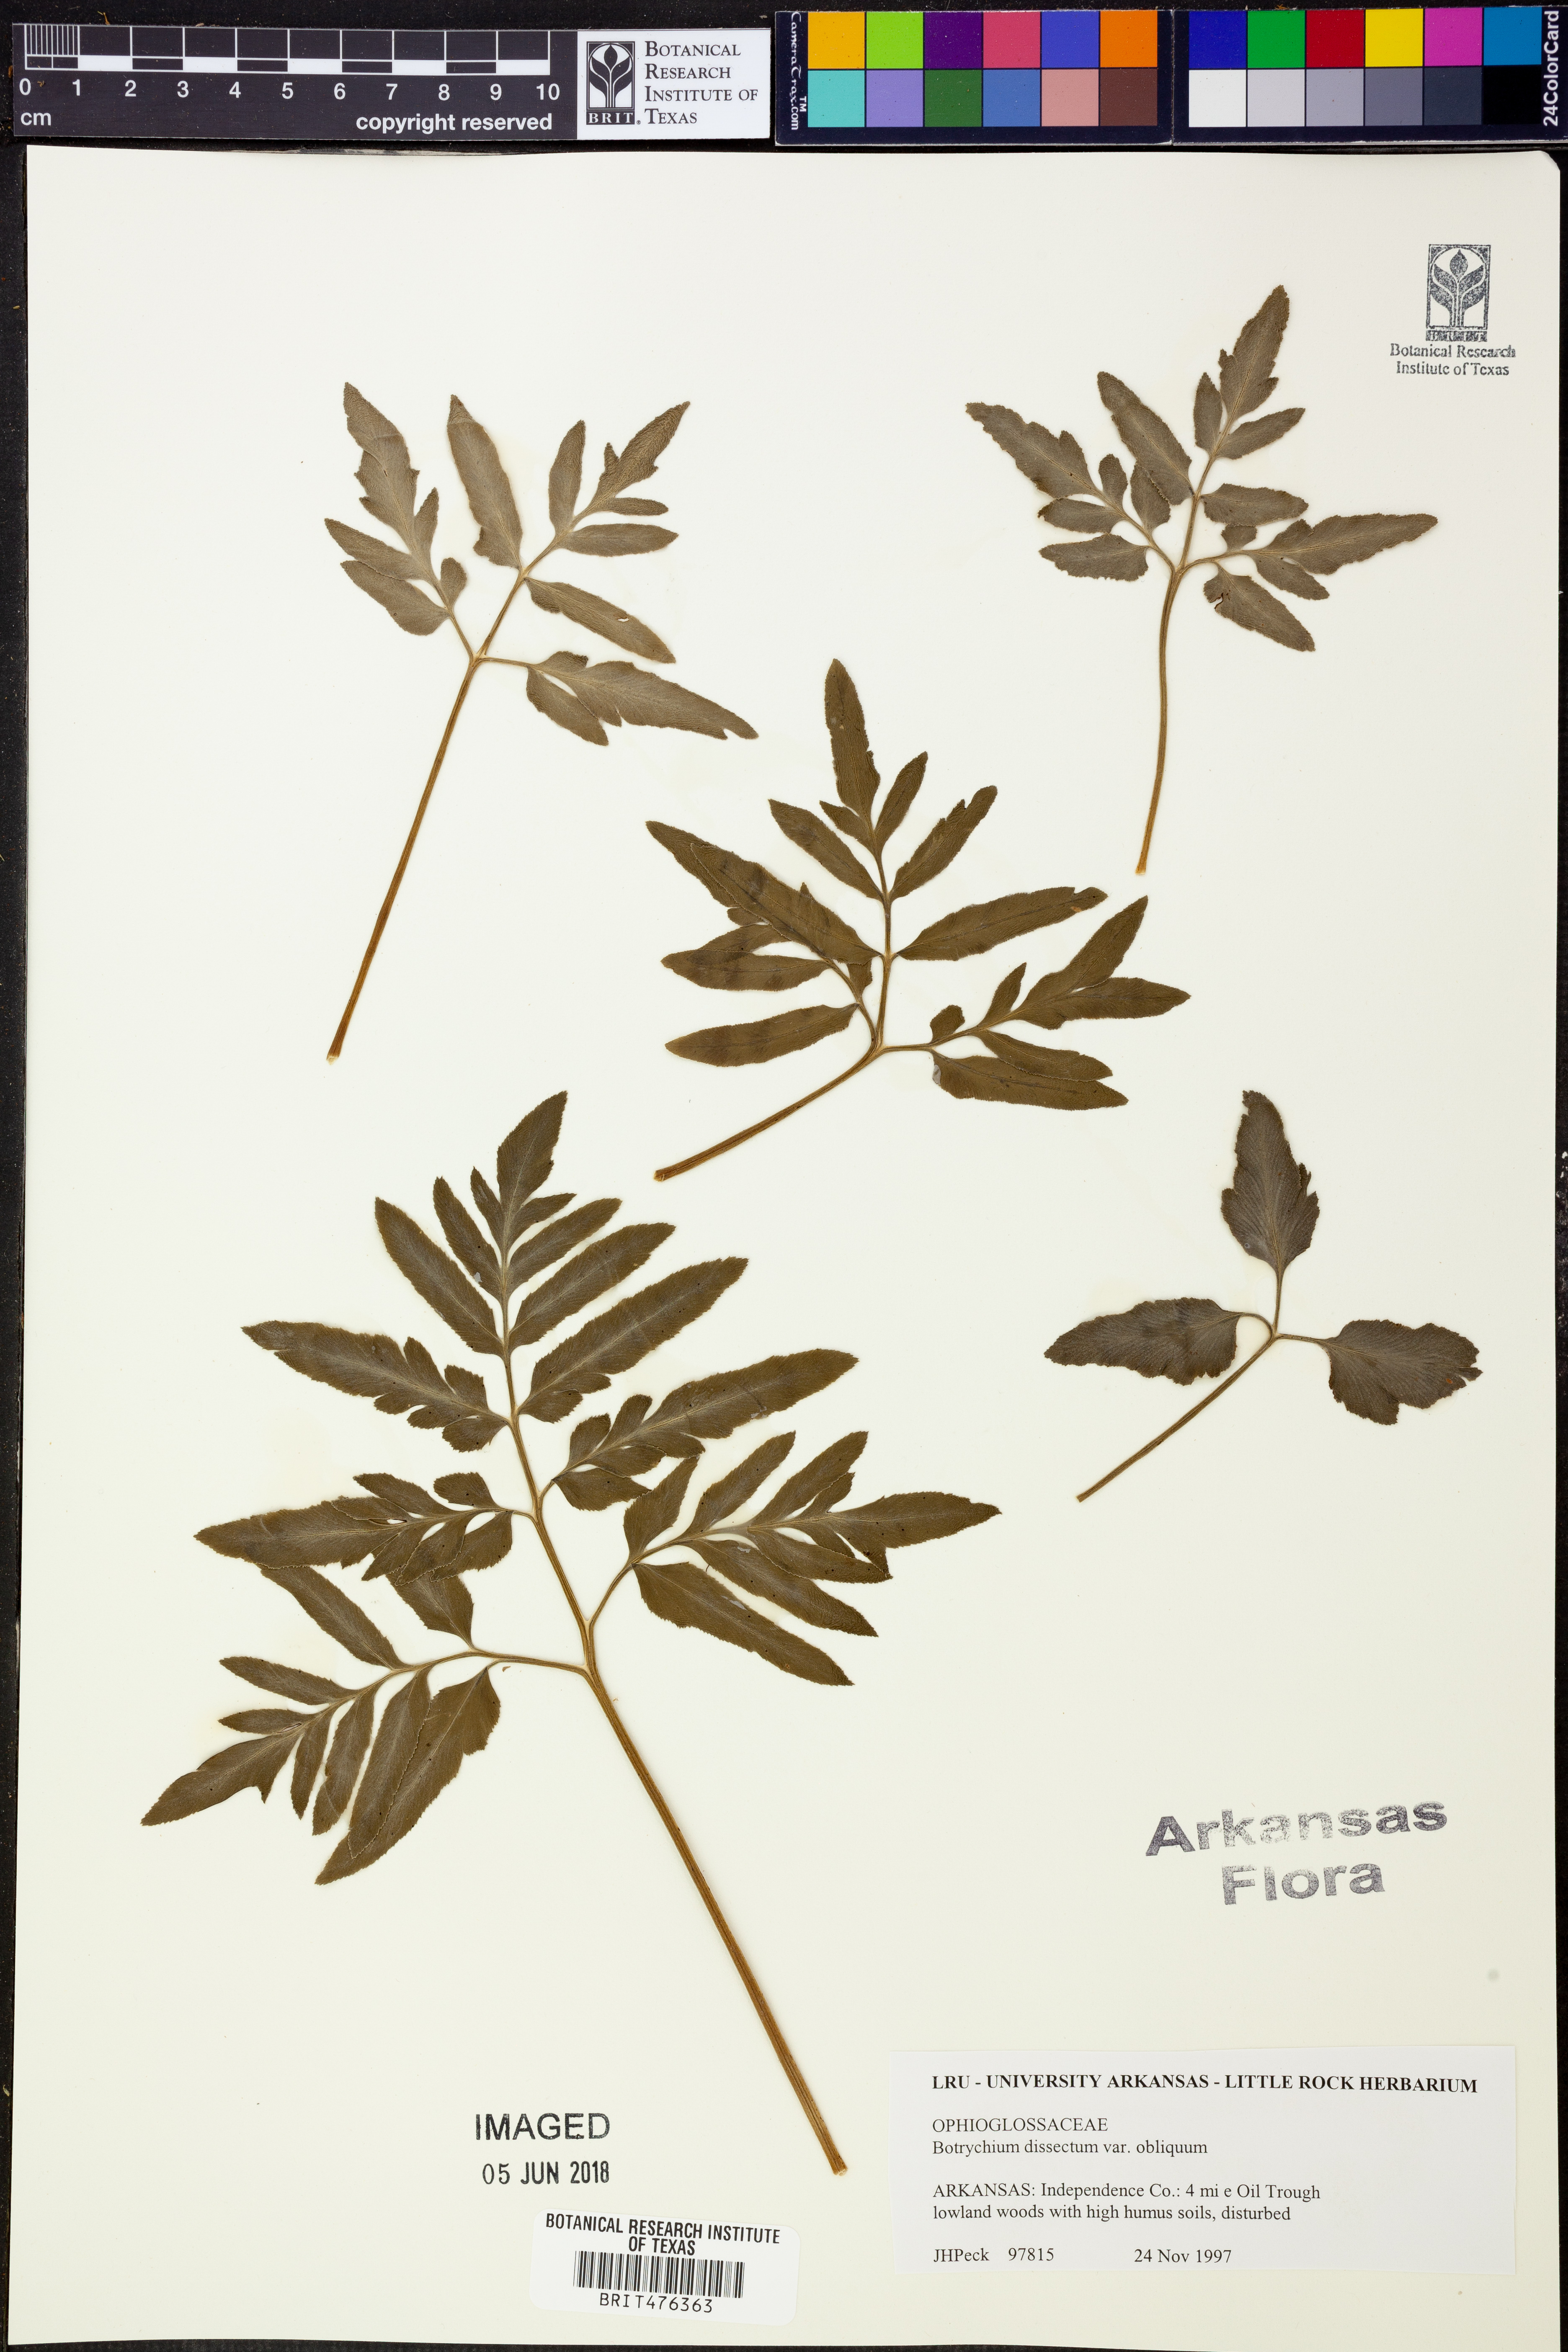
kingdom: Plantae
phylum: Tracheophyta
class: Polypodiopsida
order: Ophioglossales
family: Ophioglossaceae
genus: Sceptridium
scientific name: Sceptridium dissectum
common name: Cut-leaved grapefern
